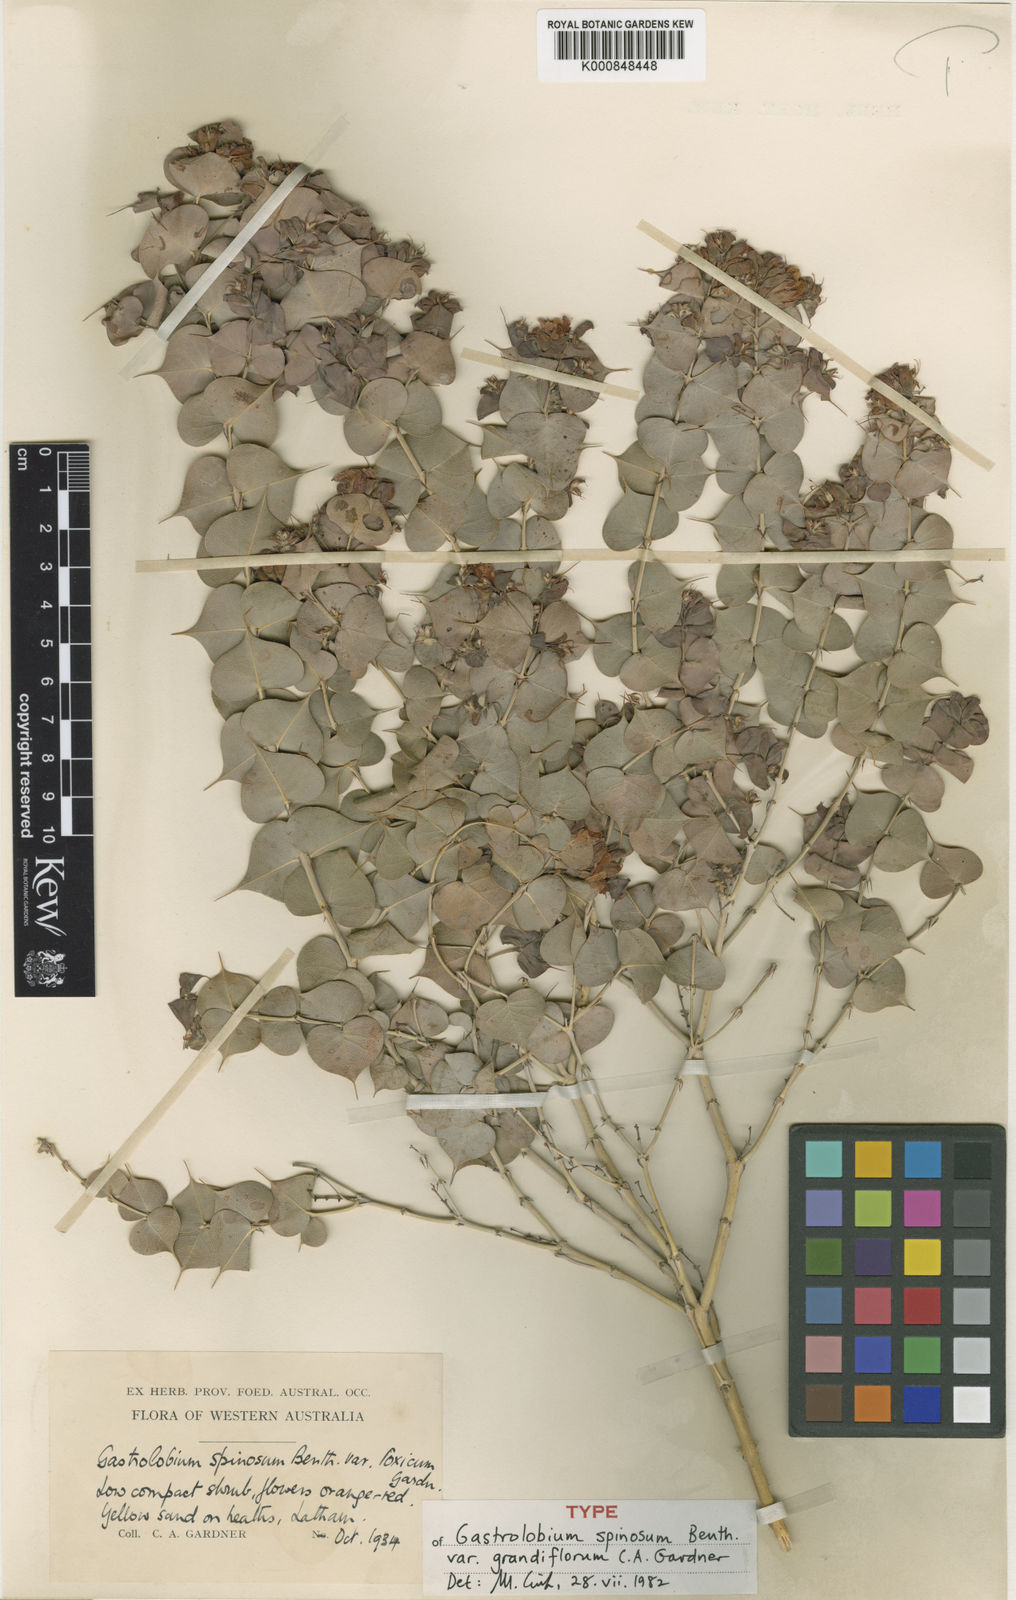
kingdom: Plantae
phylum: Tracheophyta
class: Magnoliopsida
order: Fabales
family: Fabaceae
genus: Gastrolobium
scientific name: Gastrolobium reflexum
